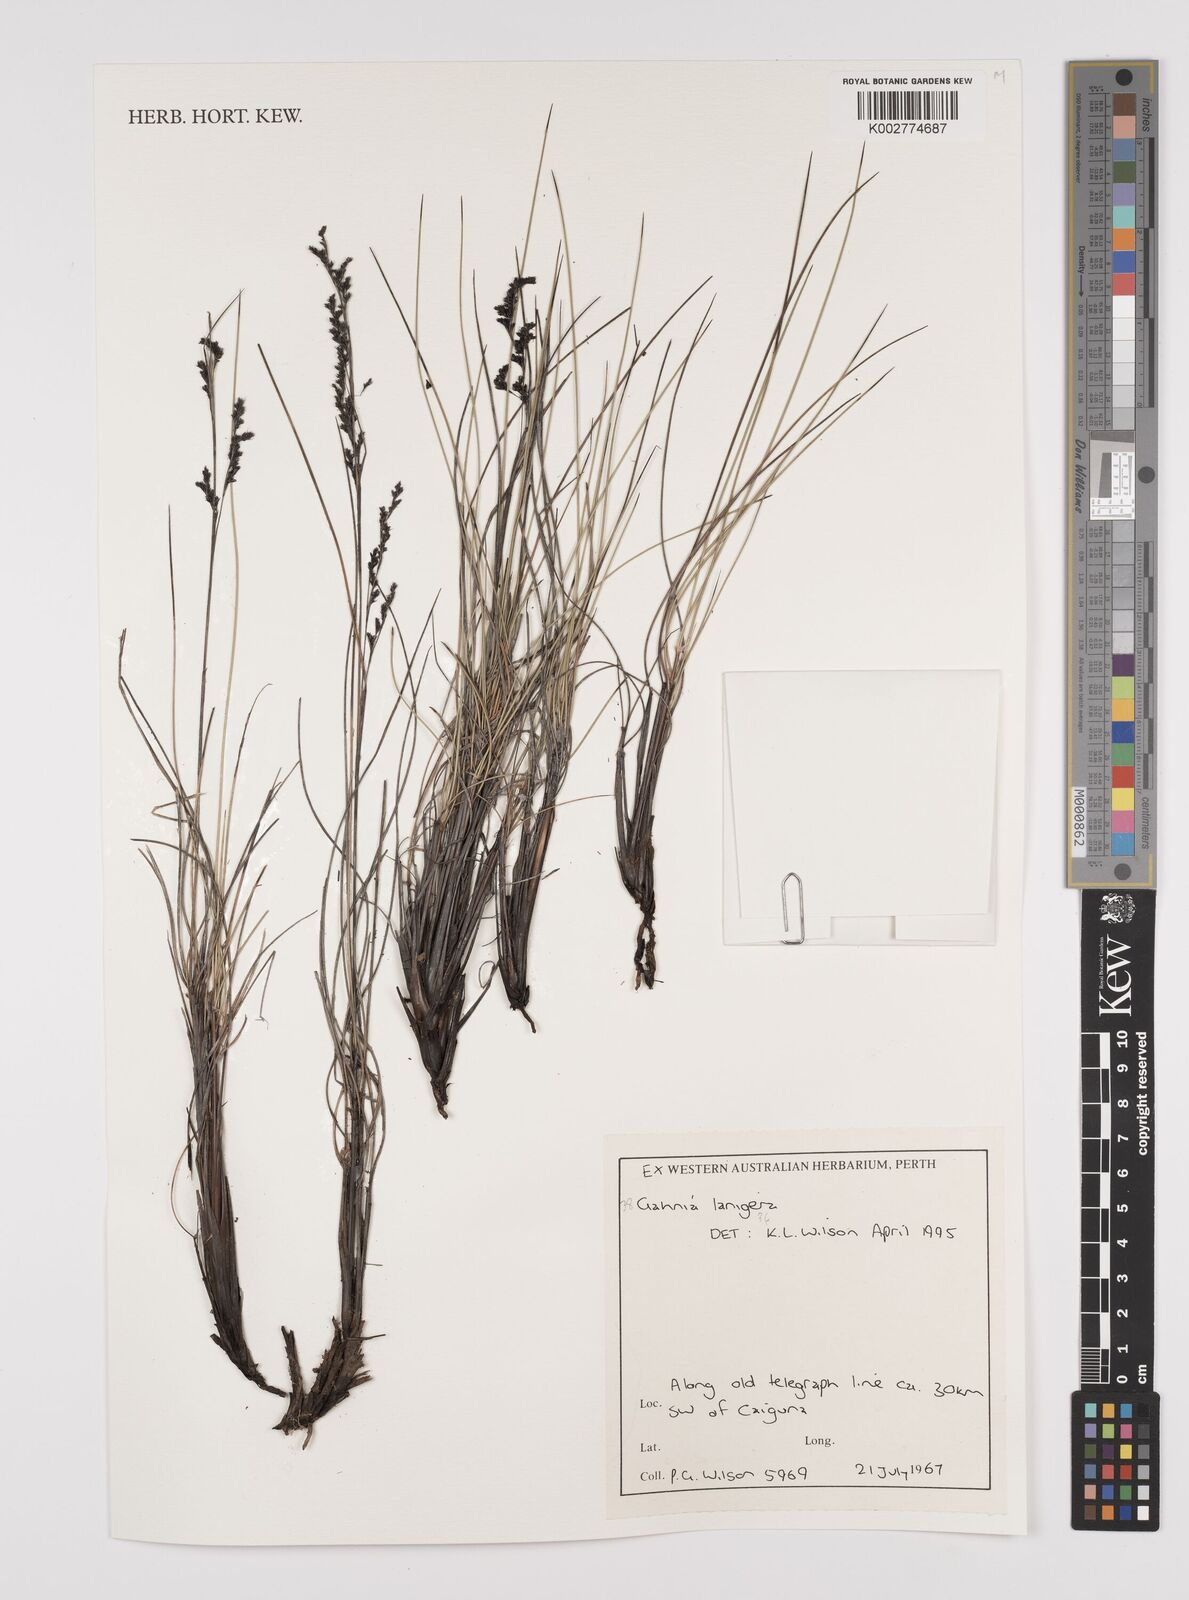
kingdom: Plantae
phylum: Tracheophyta
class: Liliopsida
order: Poales
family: Cyperaceae
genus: Gahnia
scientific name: Gahnia lanigera
